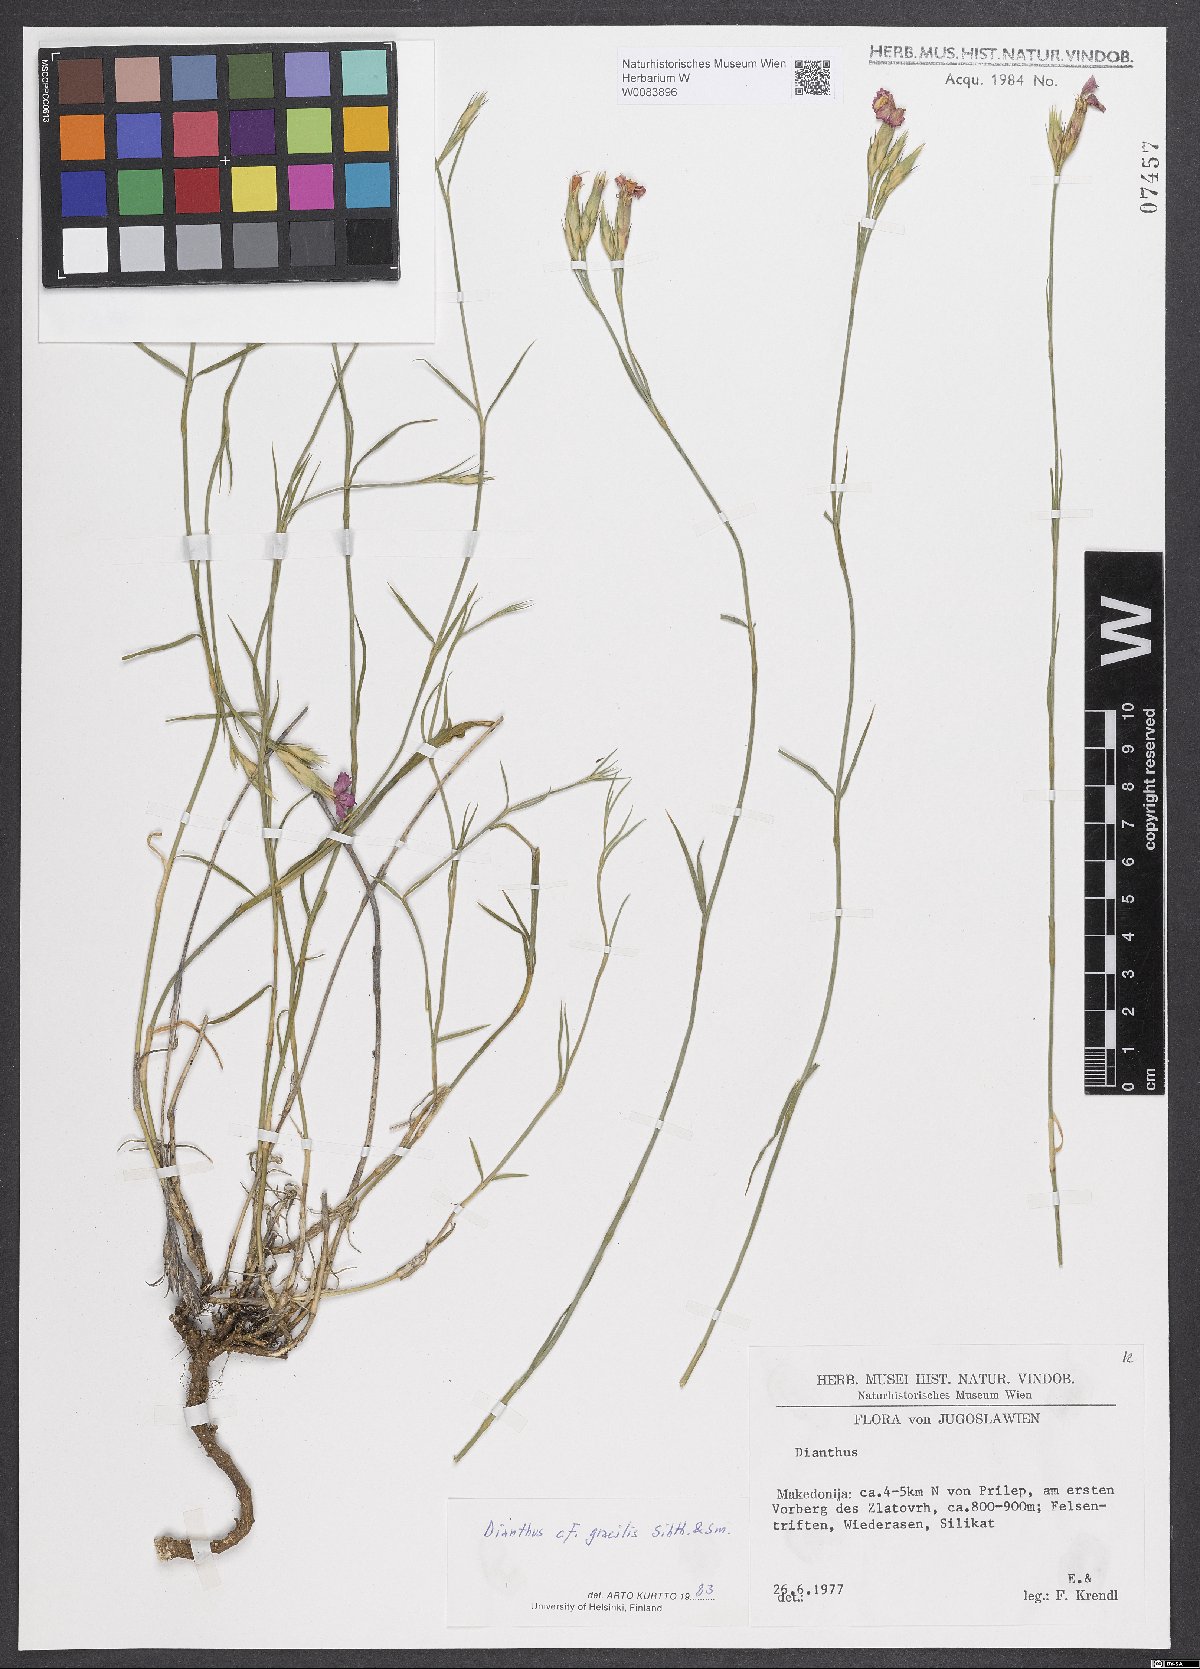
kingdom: Plantae
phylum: Tracheophyta
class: Magnoliopsida
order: Caryophyllales
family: Caryophyllaceae
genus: Dianthus
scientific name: Dianthus gracilis
